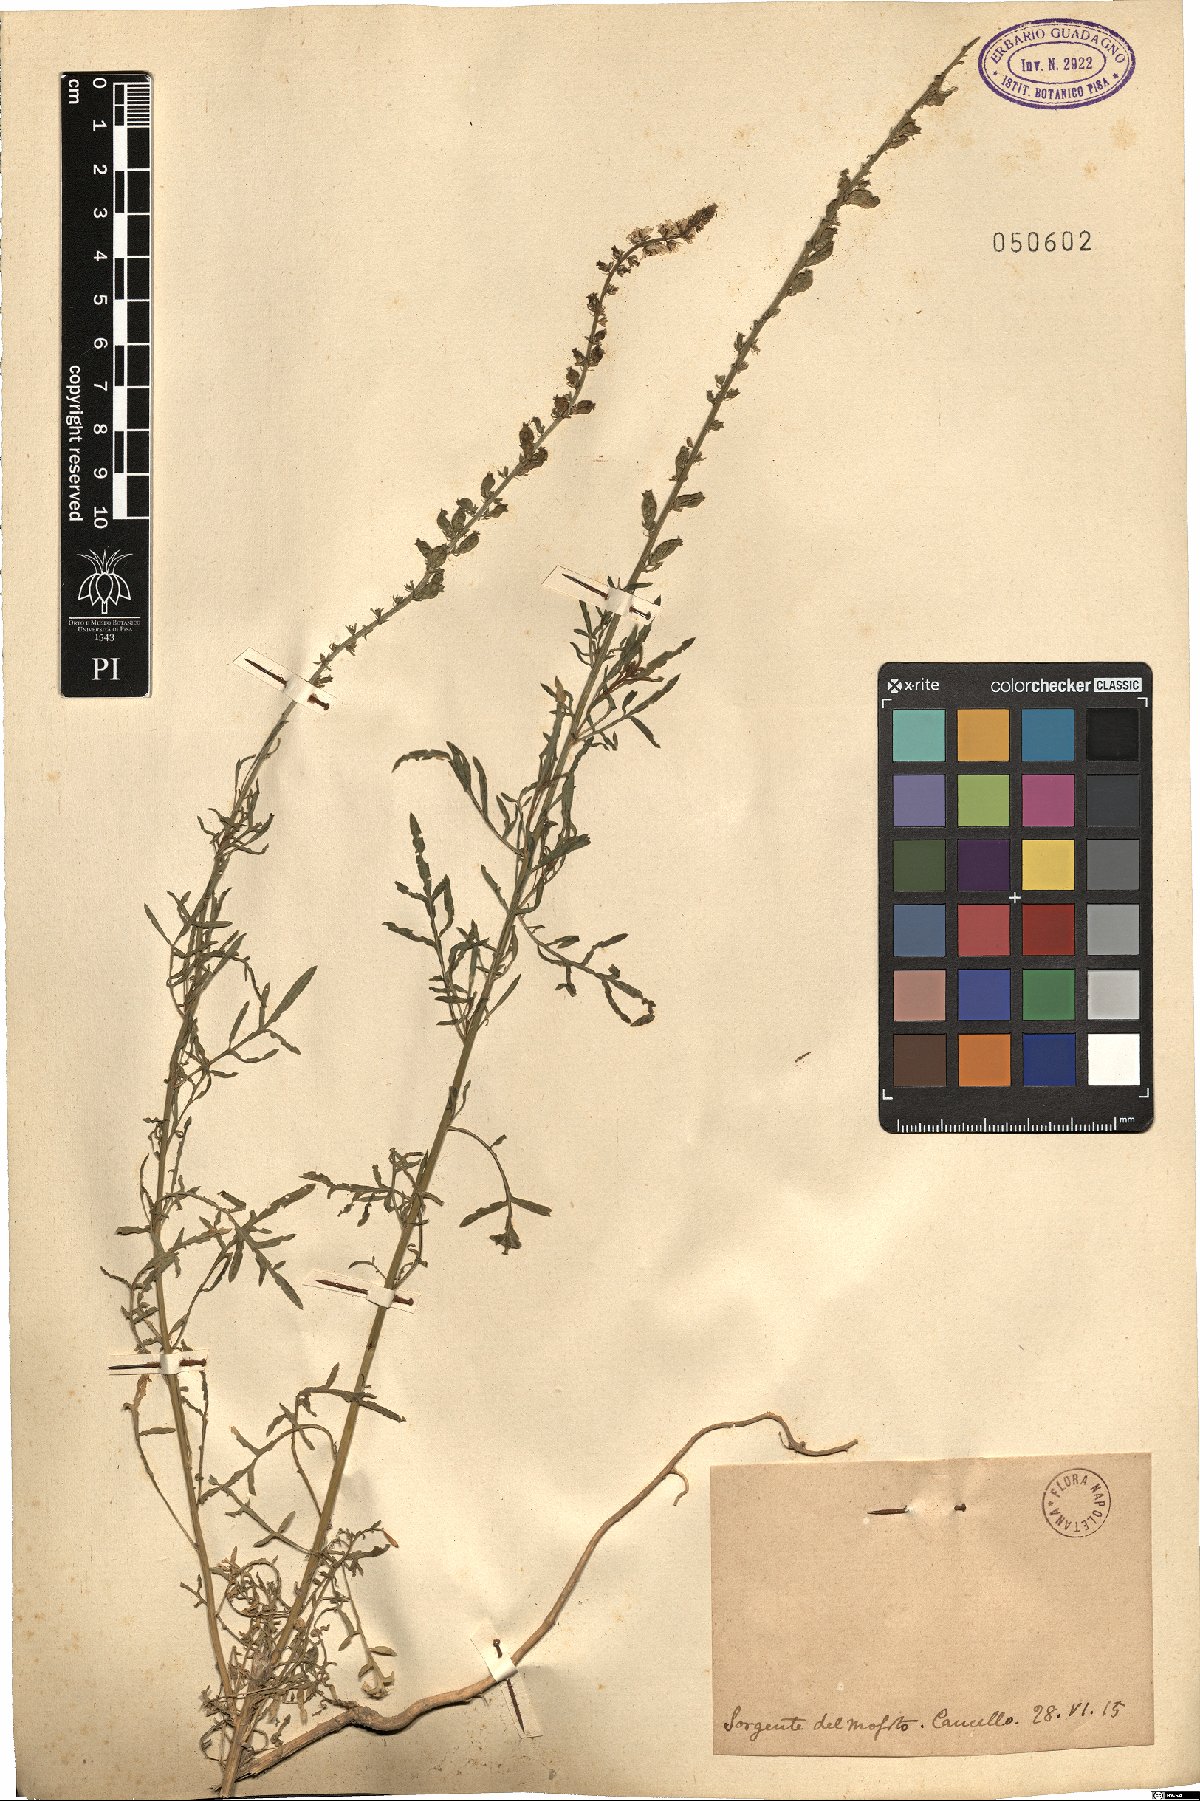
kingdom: Plantae
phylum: Tracheophyta
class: Magnoliopsida
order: Brassicales
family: Resedaceae
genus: Reseda
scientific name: Reseda
